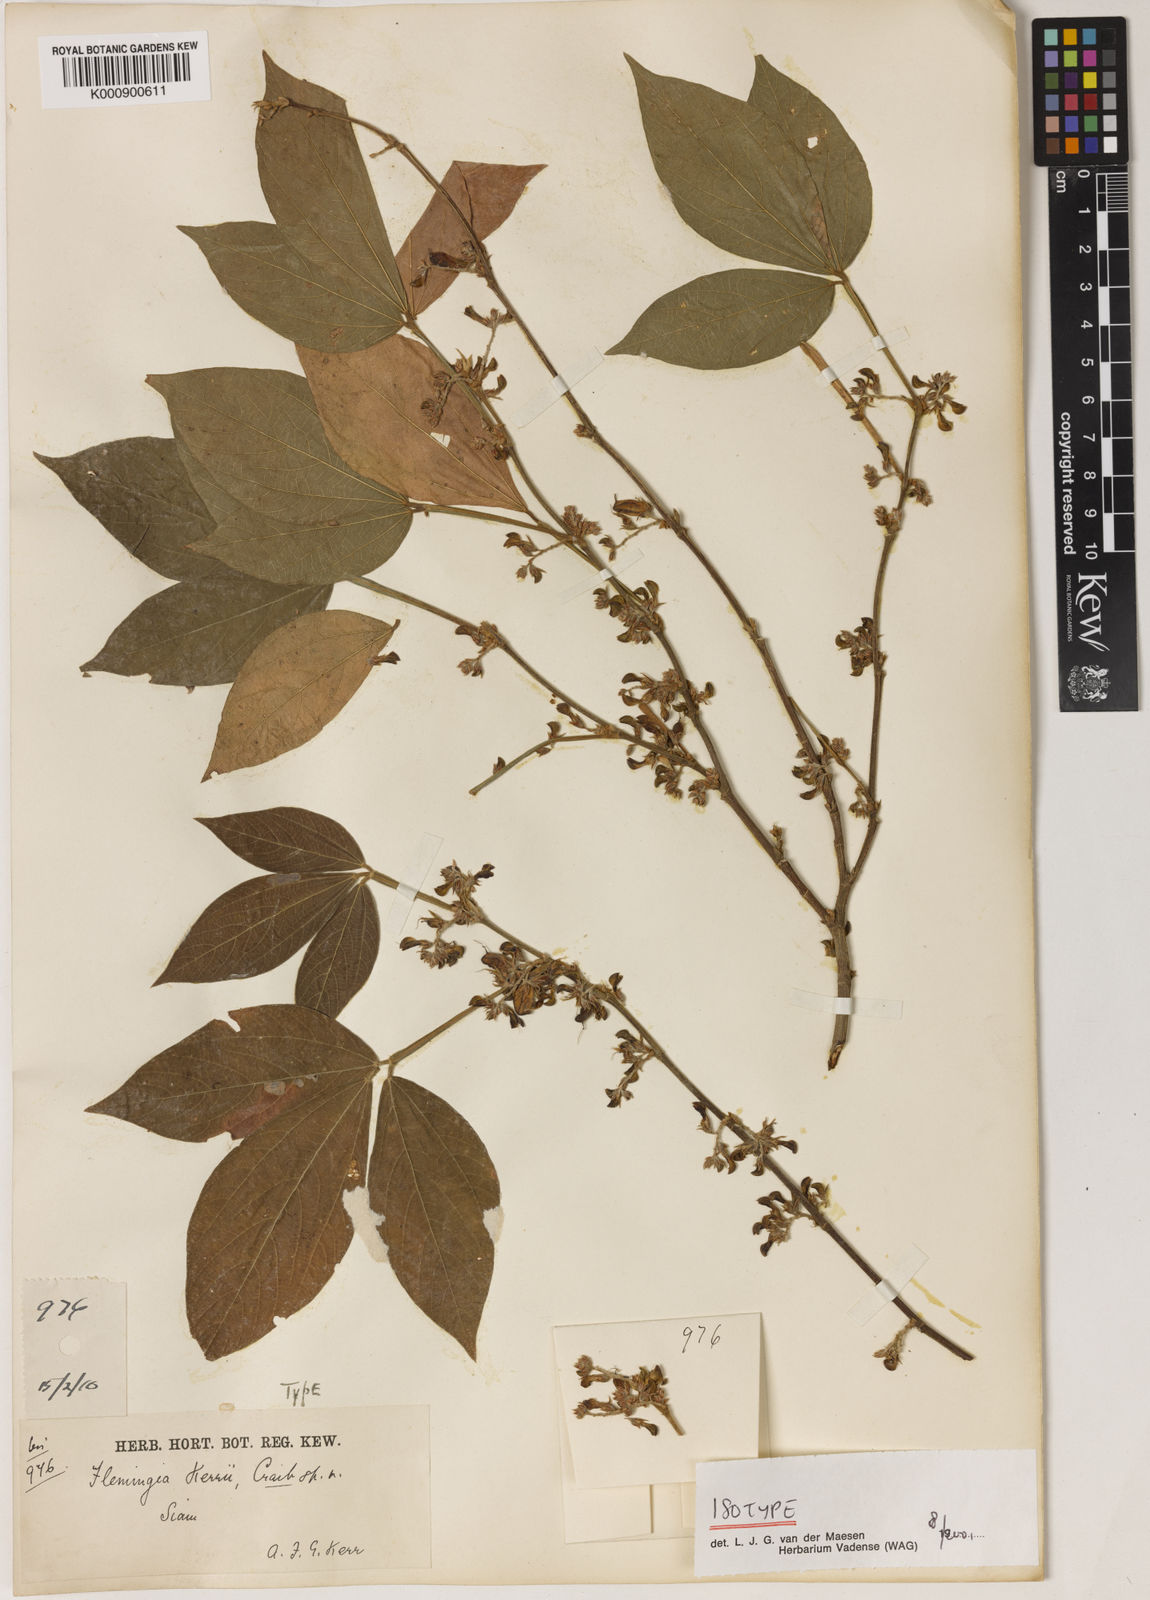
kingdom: Plantae
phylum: Tracheophyta
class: Magnoliopsida
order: Fabales
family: Fabaceae
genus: Flemingia
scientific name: Flemingia kerrii
